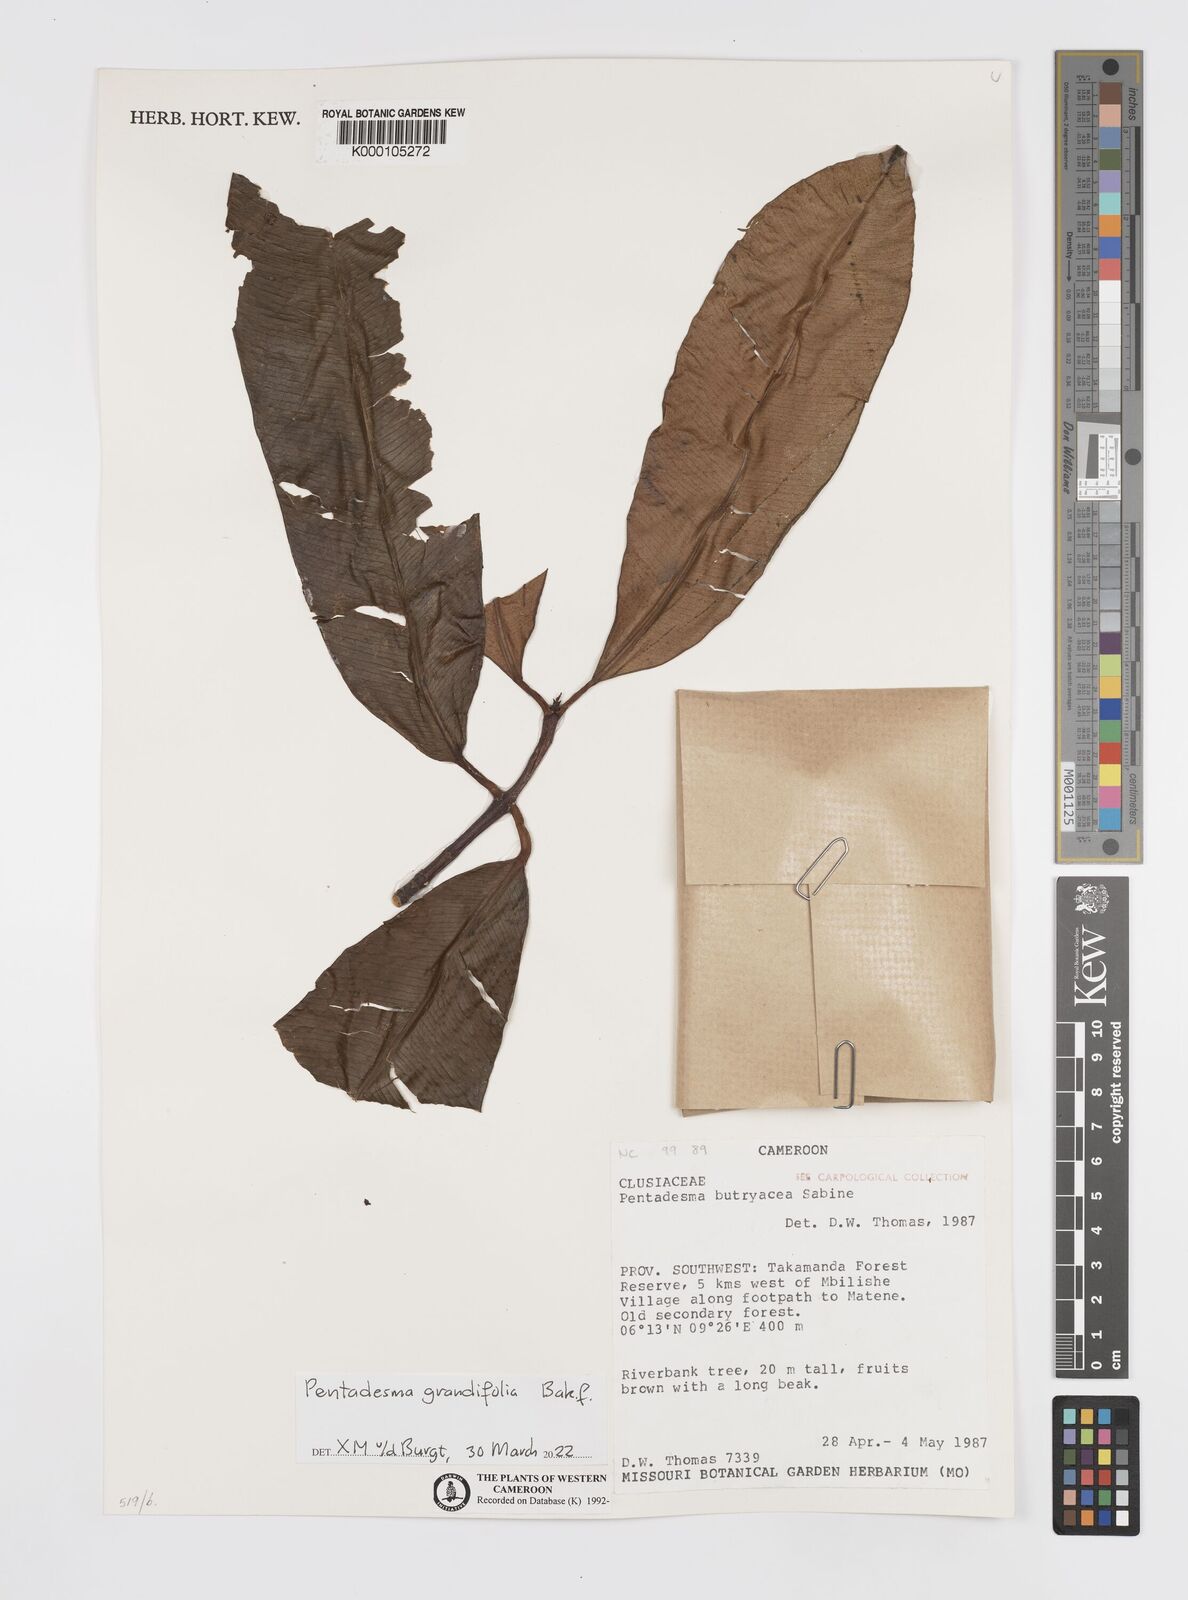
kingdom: Plantae
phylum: Tracheophyta
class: Magnoliopsida
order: Malpighiales
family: Clusiaceae
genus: Pentadesma
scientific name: Pentadesma butyracea
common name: Buttertree
